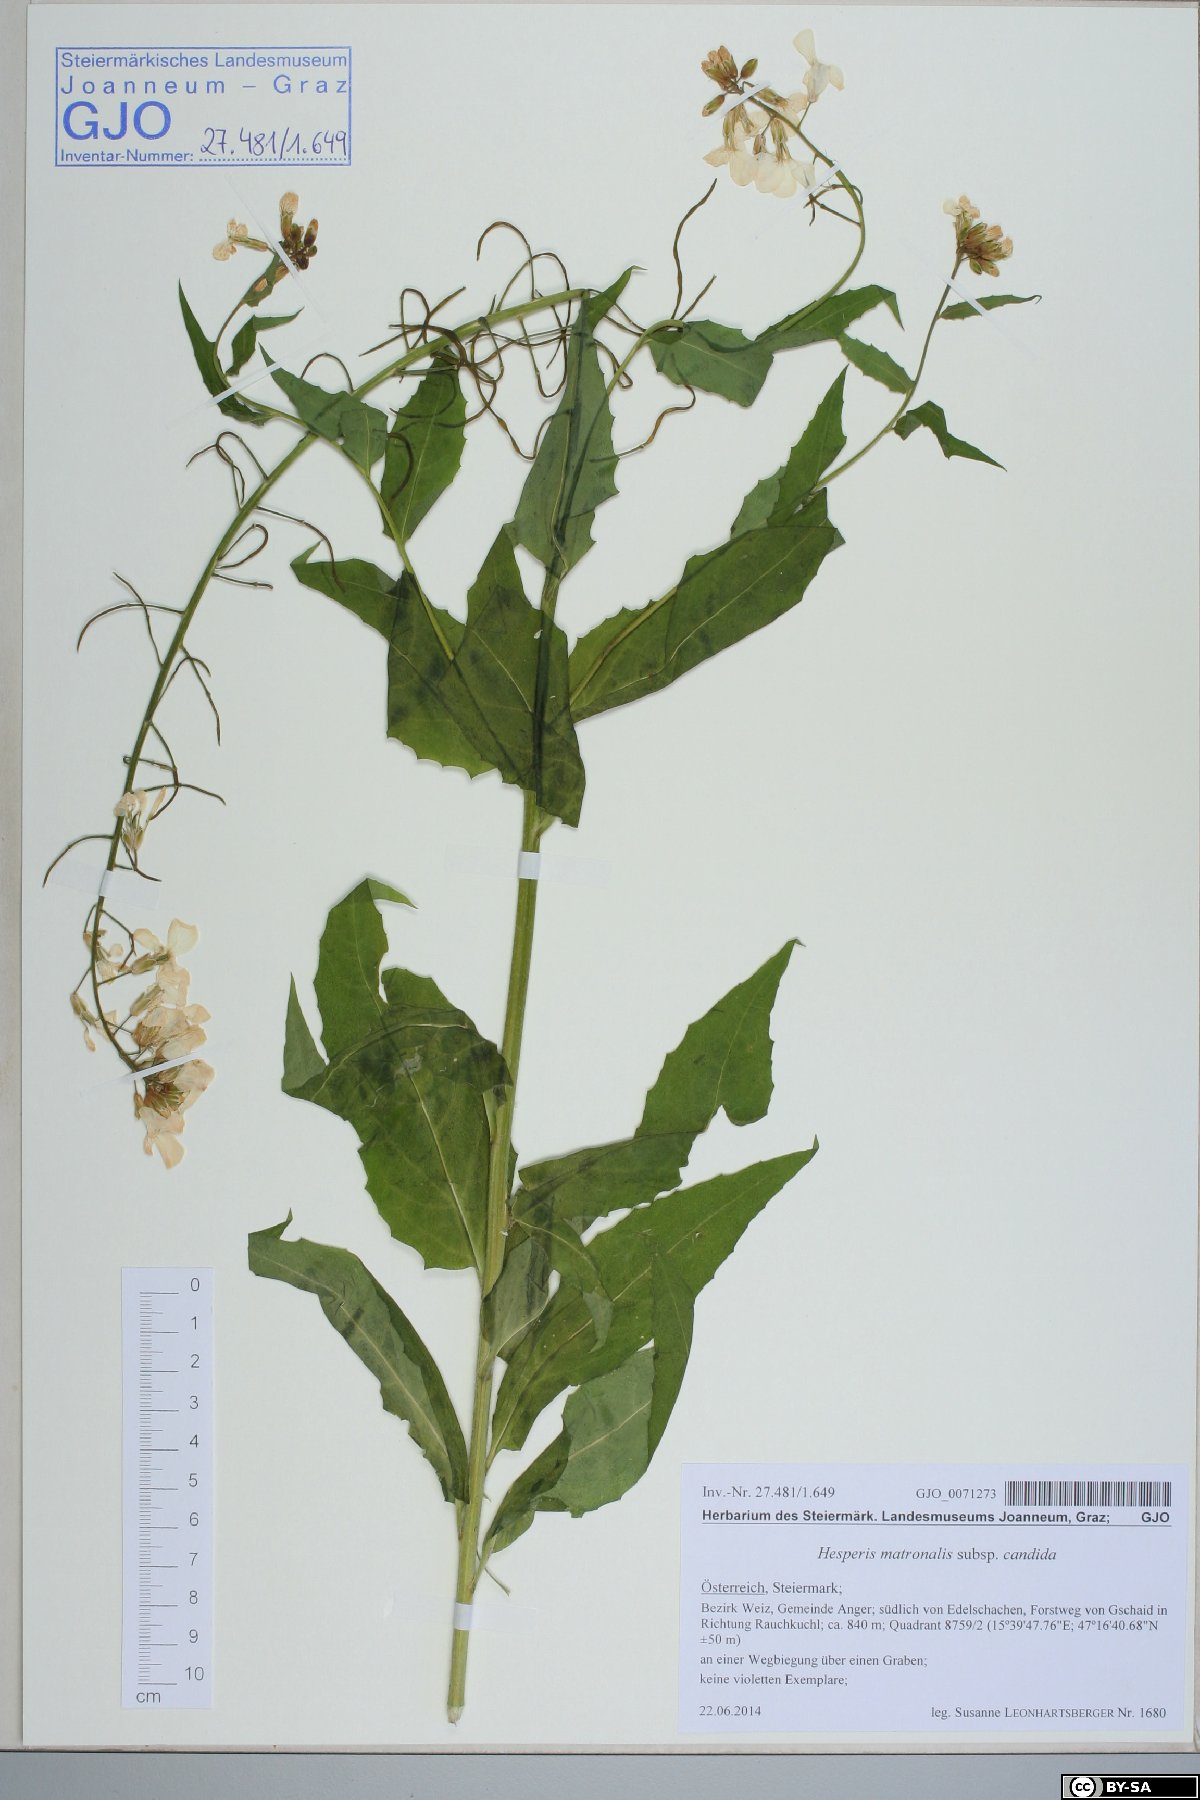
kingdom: Plantae
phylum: Tracheophyta
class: Magnoliopsida
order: Brassicales
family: Brassicaceae
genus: Hesperis
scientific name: Hesperis matronalis
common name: Dame's-violet
